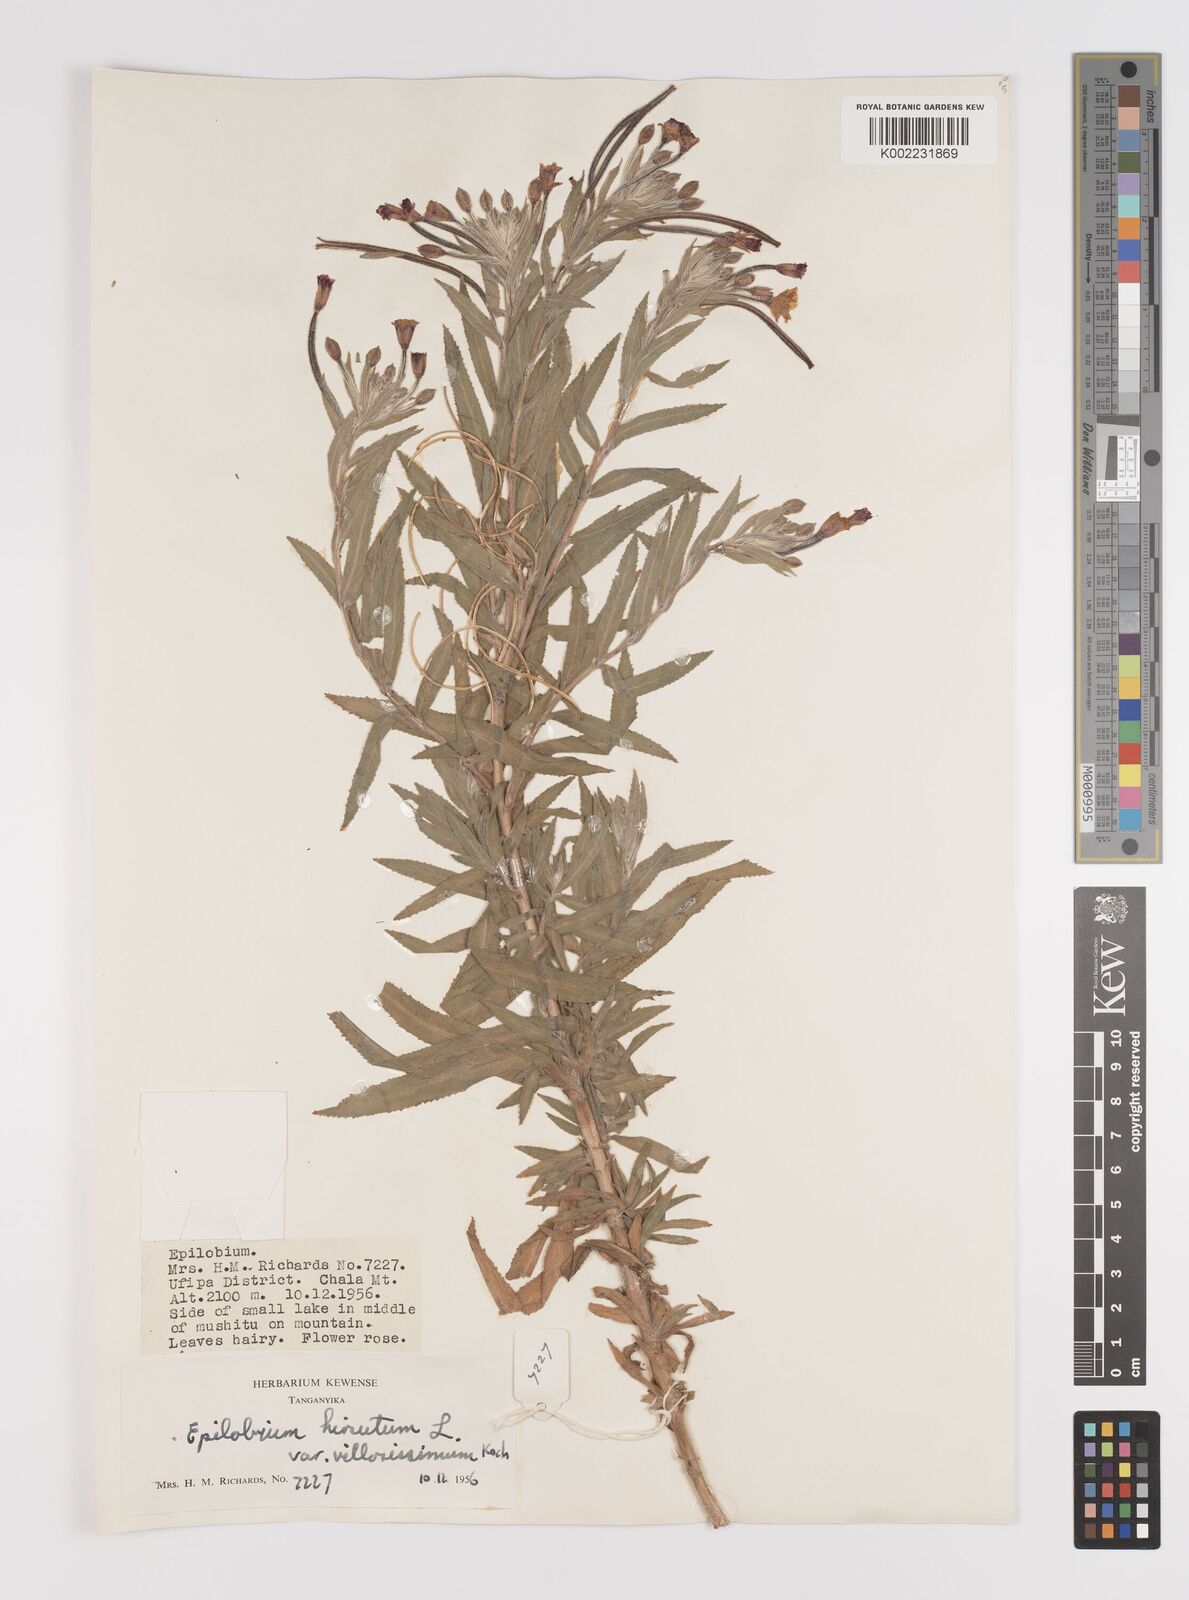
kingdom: Plantae
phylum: Tracheophyta
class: Magnoliopsida
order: Myrtales
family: Onagraceae
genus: Epilobium
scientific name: Epilobium hirsutum
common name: Great willowherb
